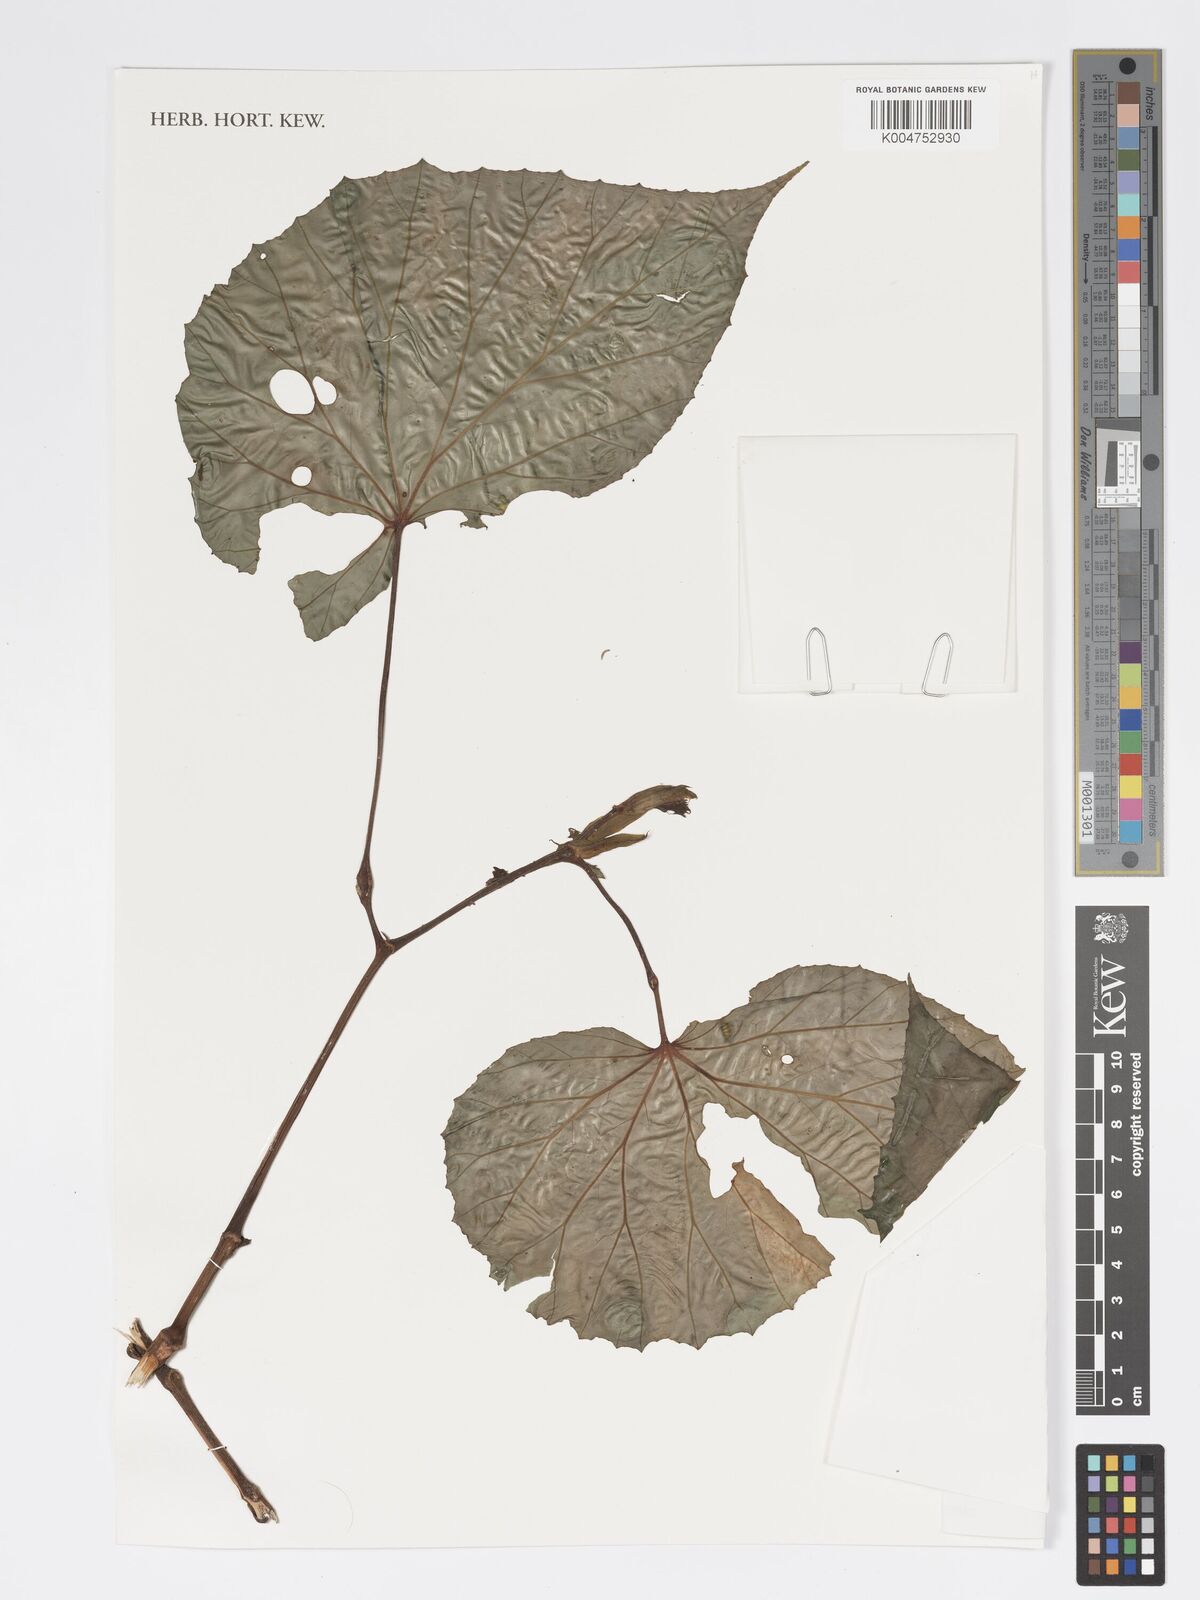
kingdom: Plantae
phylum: Tracheophyta
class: Magnoliopsida
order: Cucurbitales
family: Begoniaceae
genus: Begonia
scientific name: Begonia
